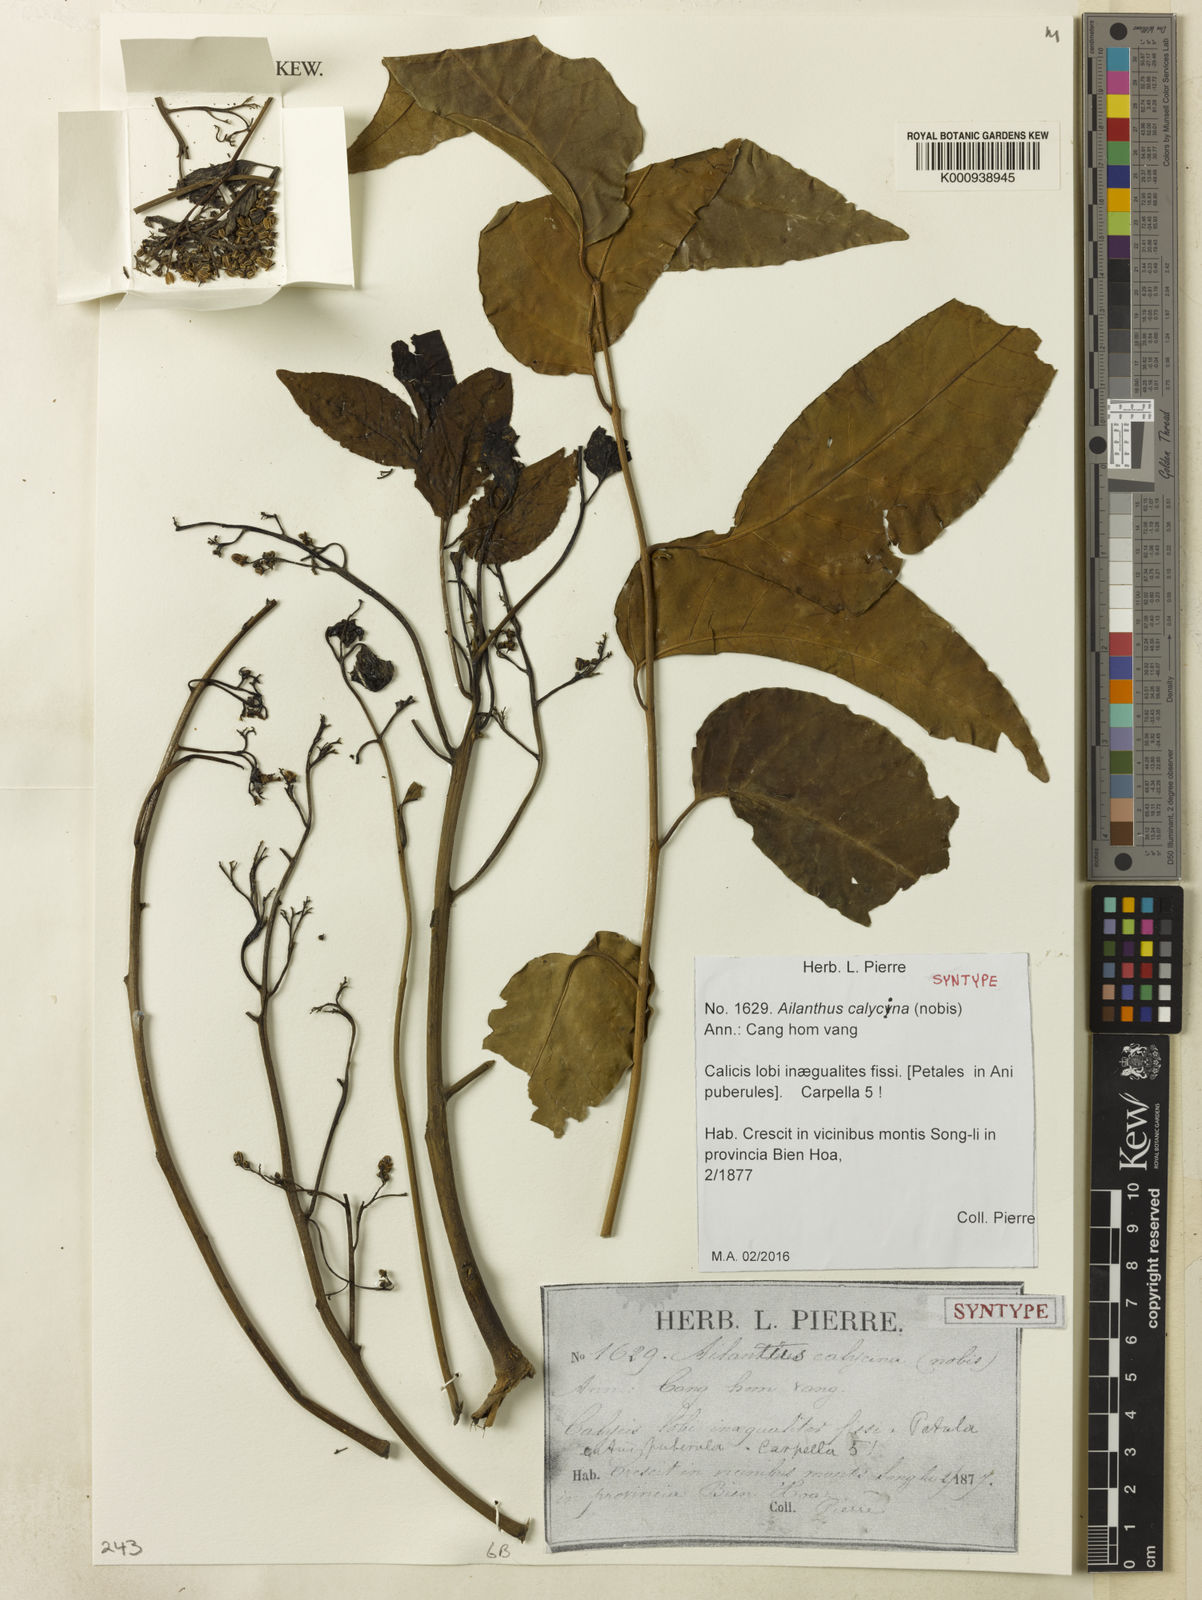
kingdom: Plantae
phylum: Tracheophyta
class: Magnoliopsida
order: Sapindales
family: Simaroubaceae
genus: Ailanthus
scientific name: Ailanthus integrifolia
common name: White siris
